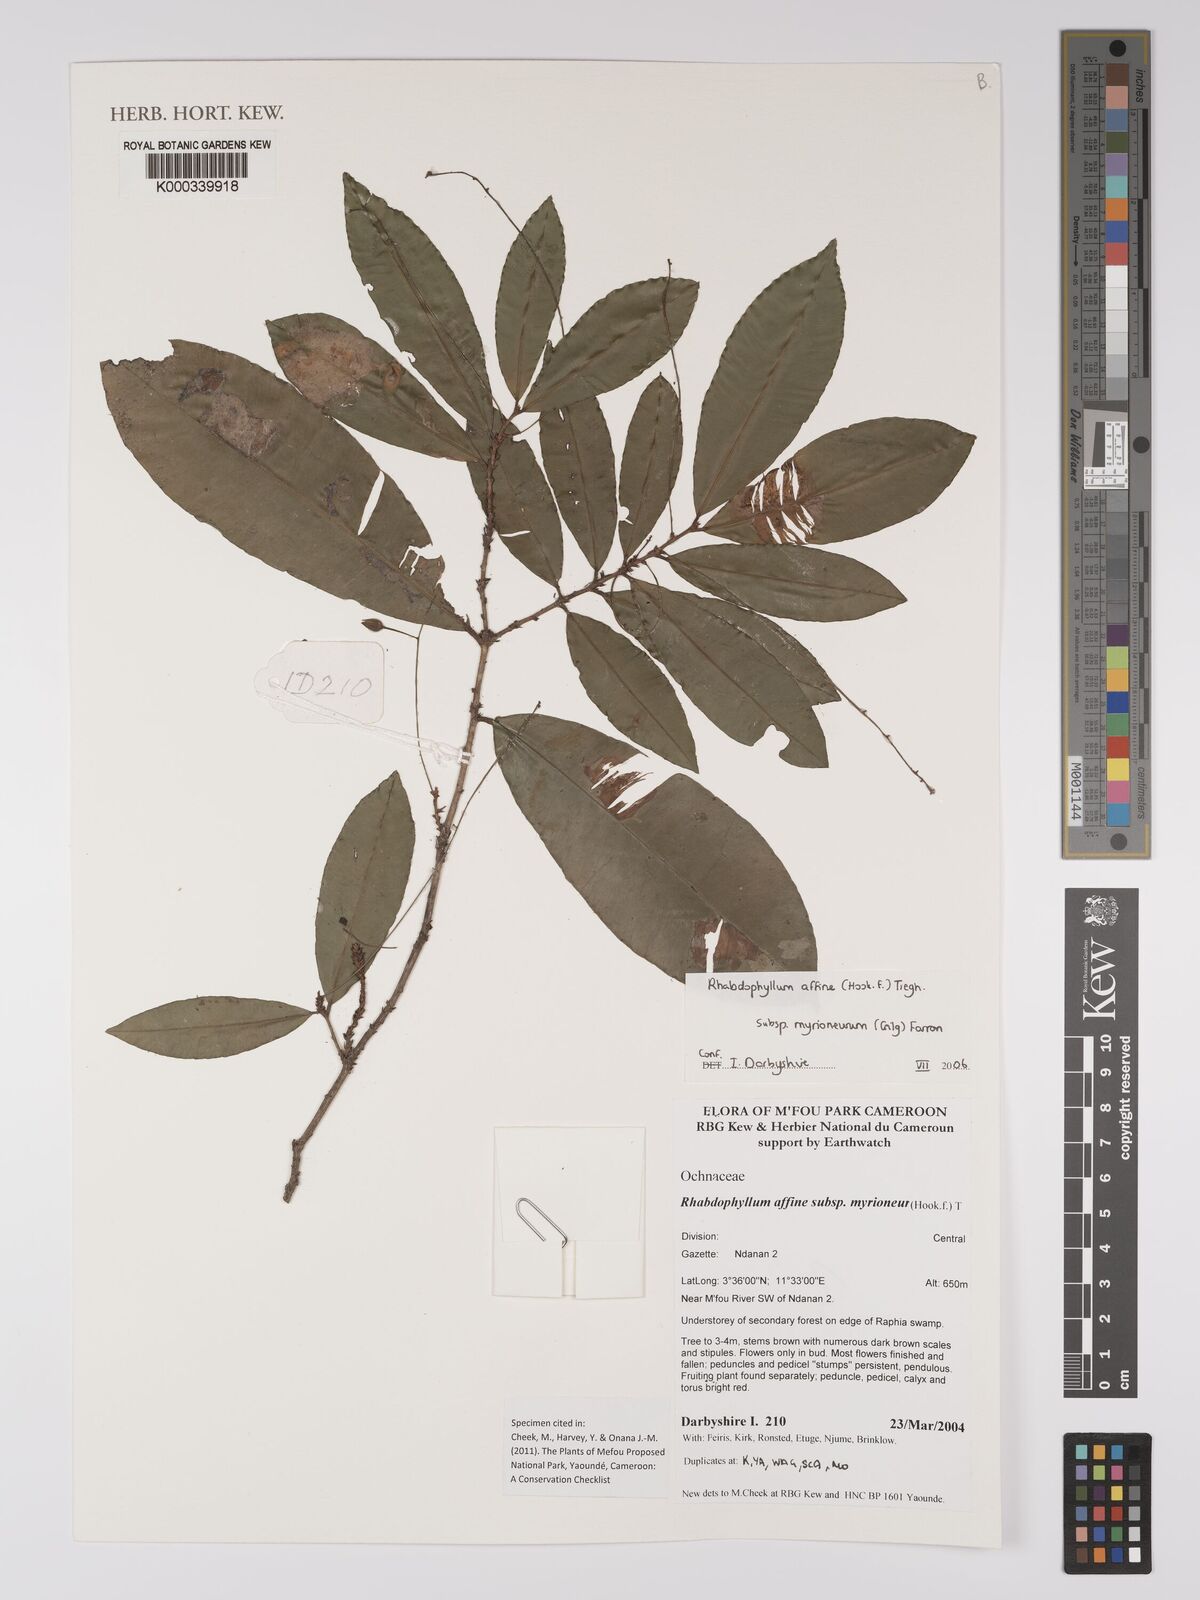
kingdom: Plantae
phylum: Tracheophyta
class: Magnoliopsida
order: Malpighiales
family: Ochnaceae
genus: Rhabdophyllum
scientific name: Rhabdophyllum affine
